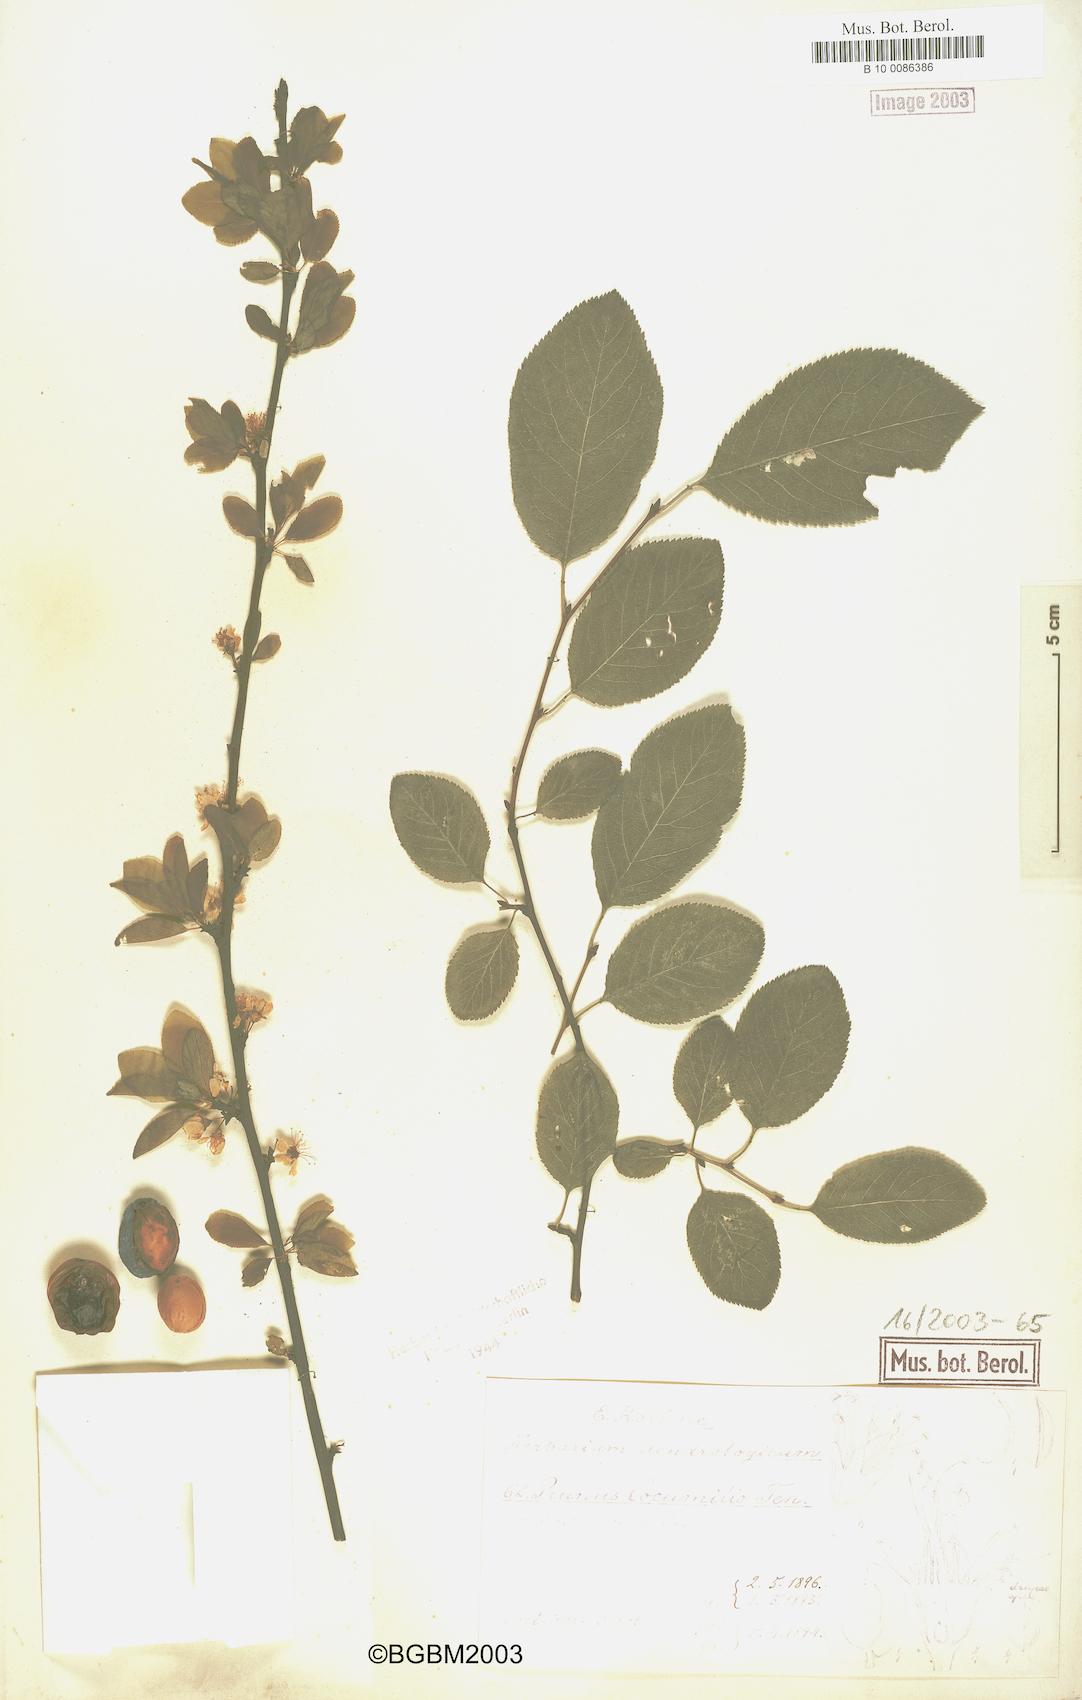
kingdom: Plantae
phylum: Tracheophyta
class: Magnoliopsida
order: Rosales
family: Rosaceae
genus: Prunus
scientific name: Prunus cocomilia
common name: Italian plum
